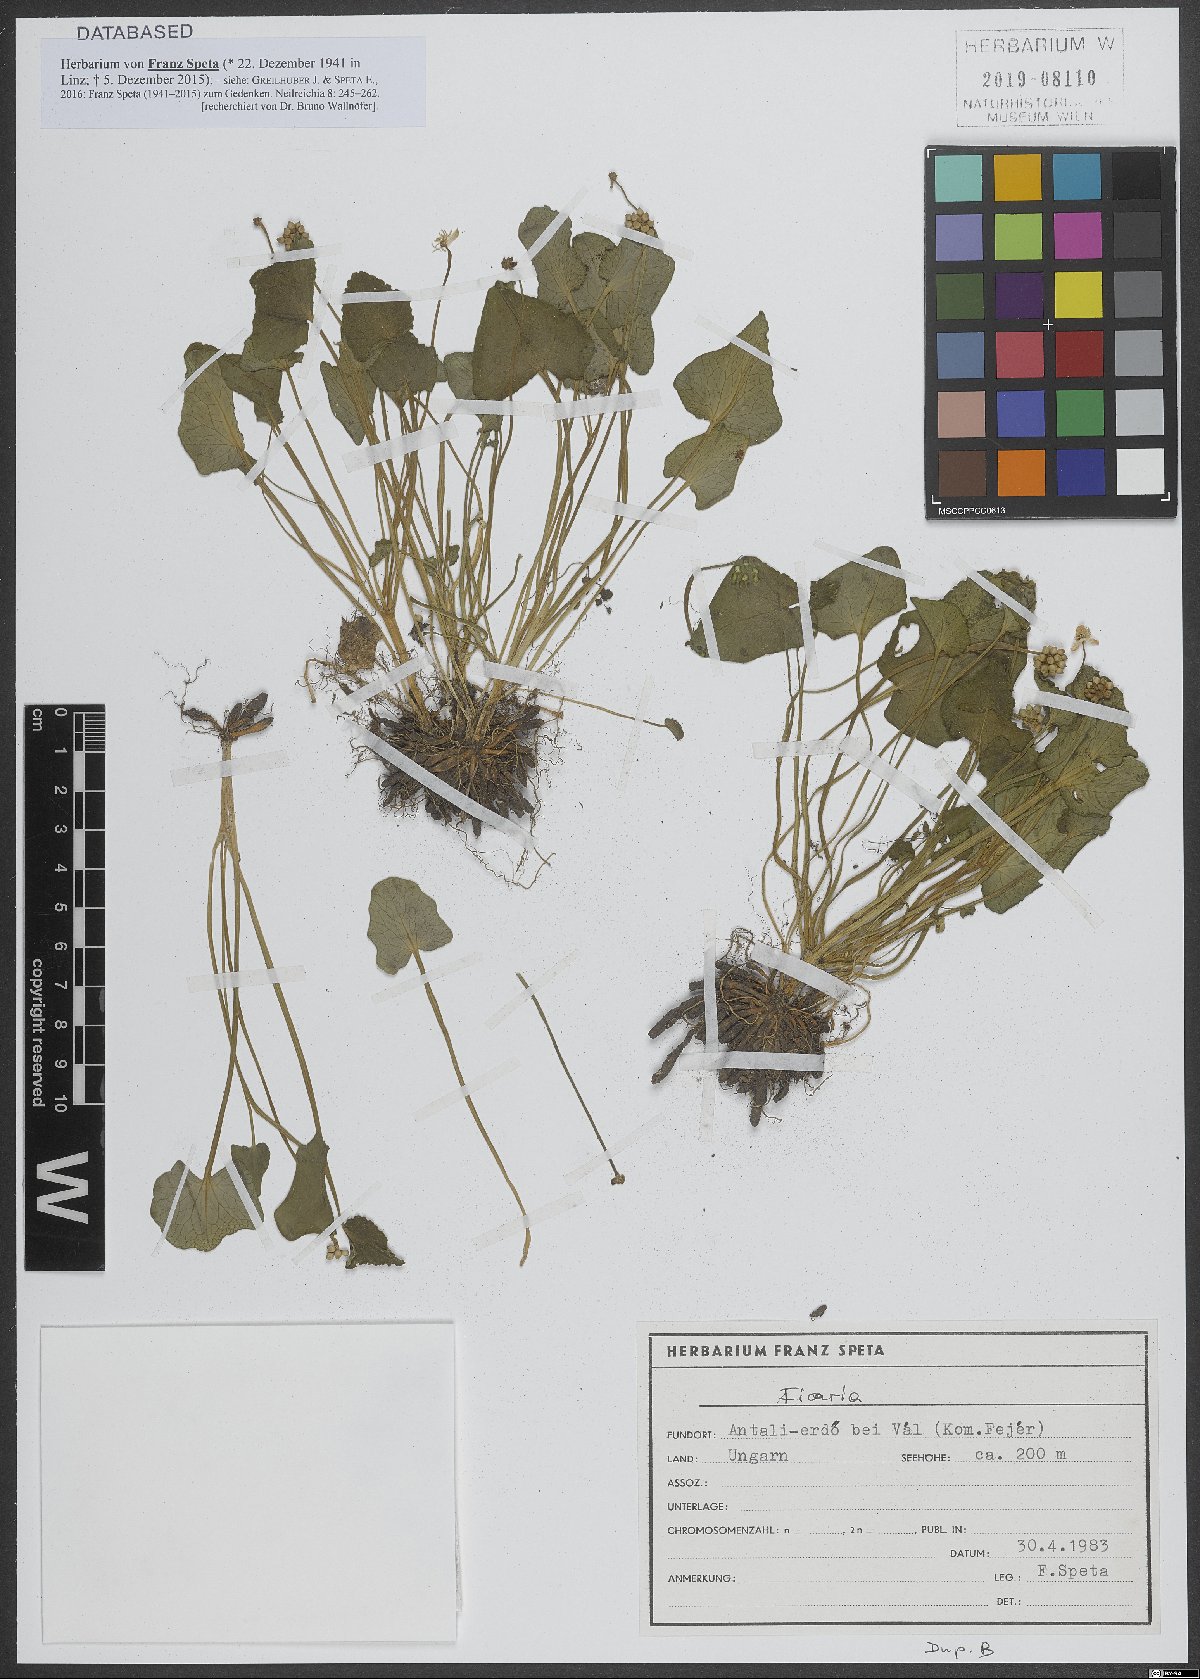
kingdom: Plantae
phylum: Tracheophyta
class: Magnoliopsida
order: Ranunculales
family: Ranunculaceae
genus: Ficaria
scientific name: Ficaria
